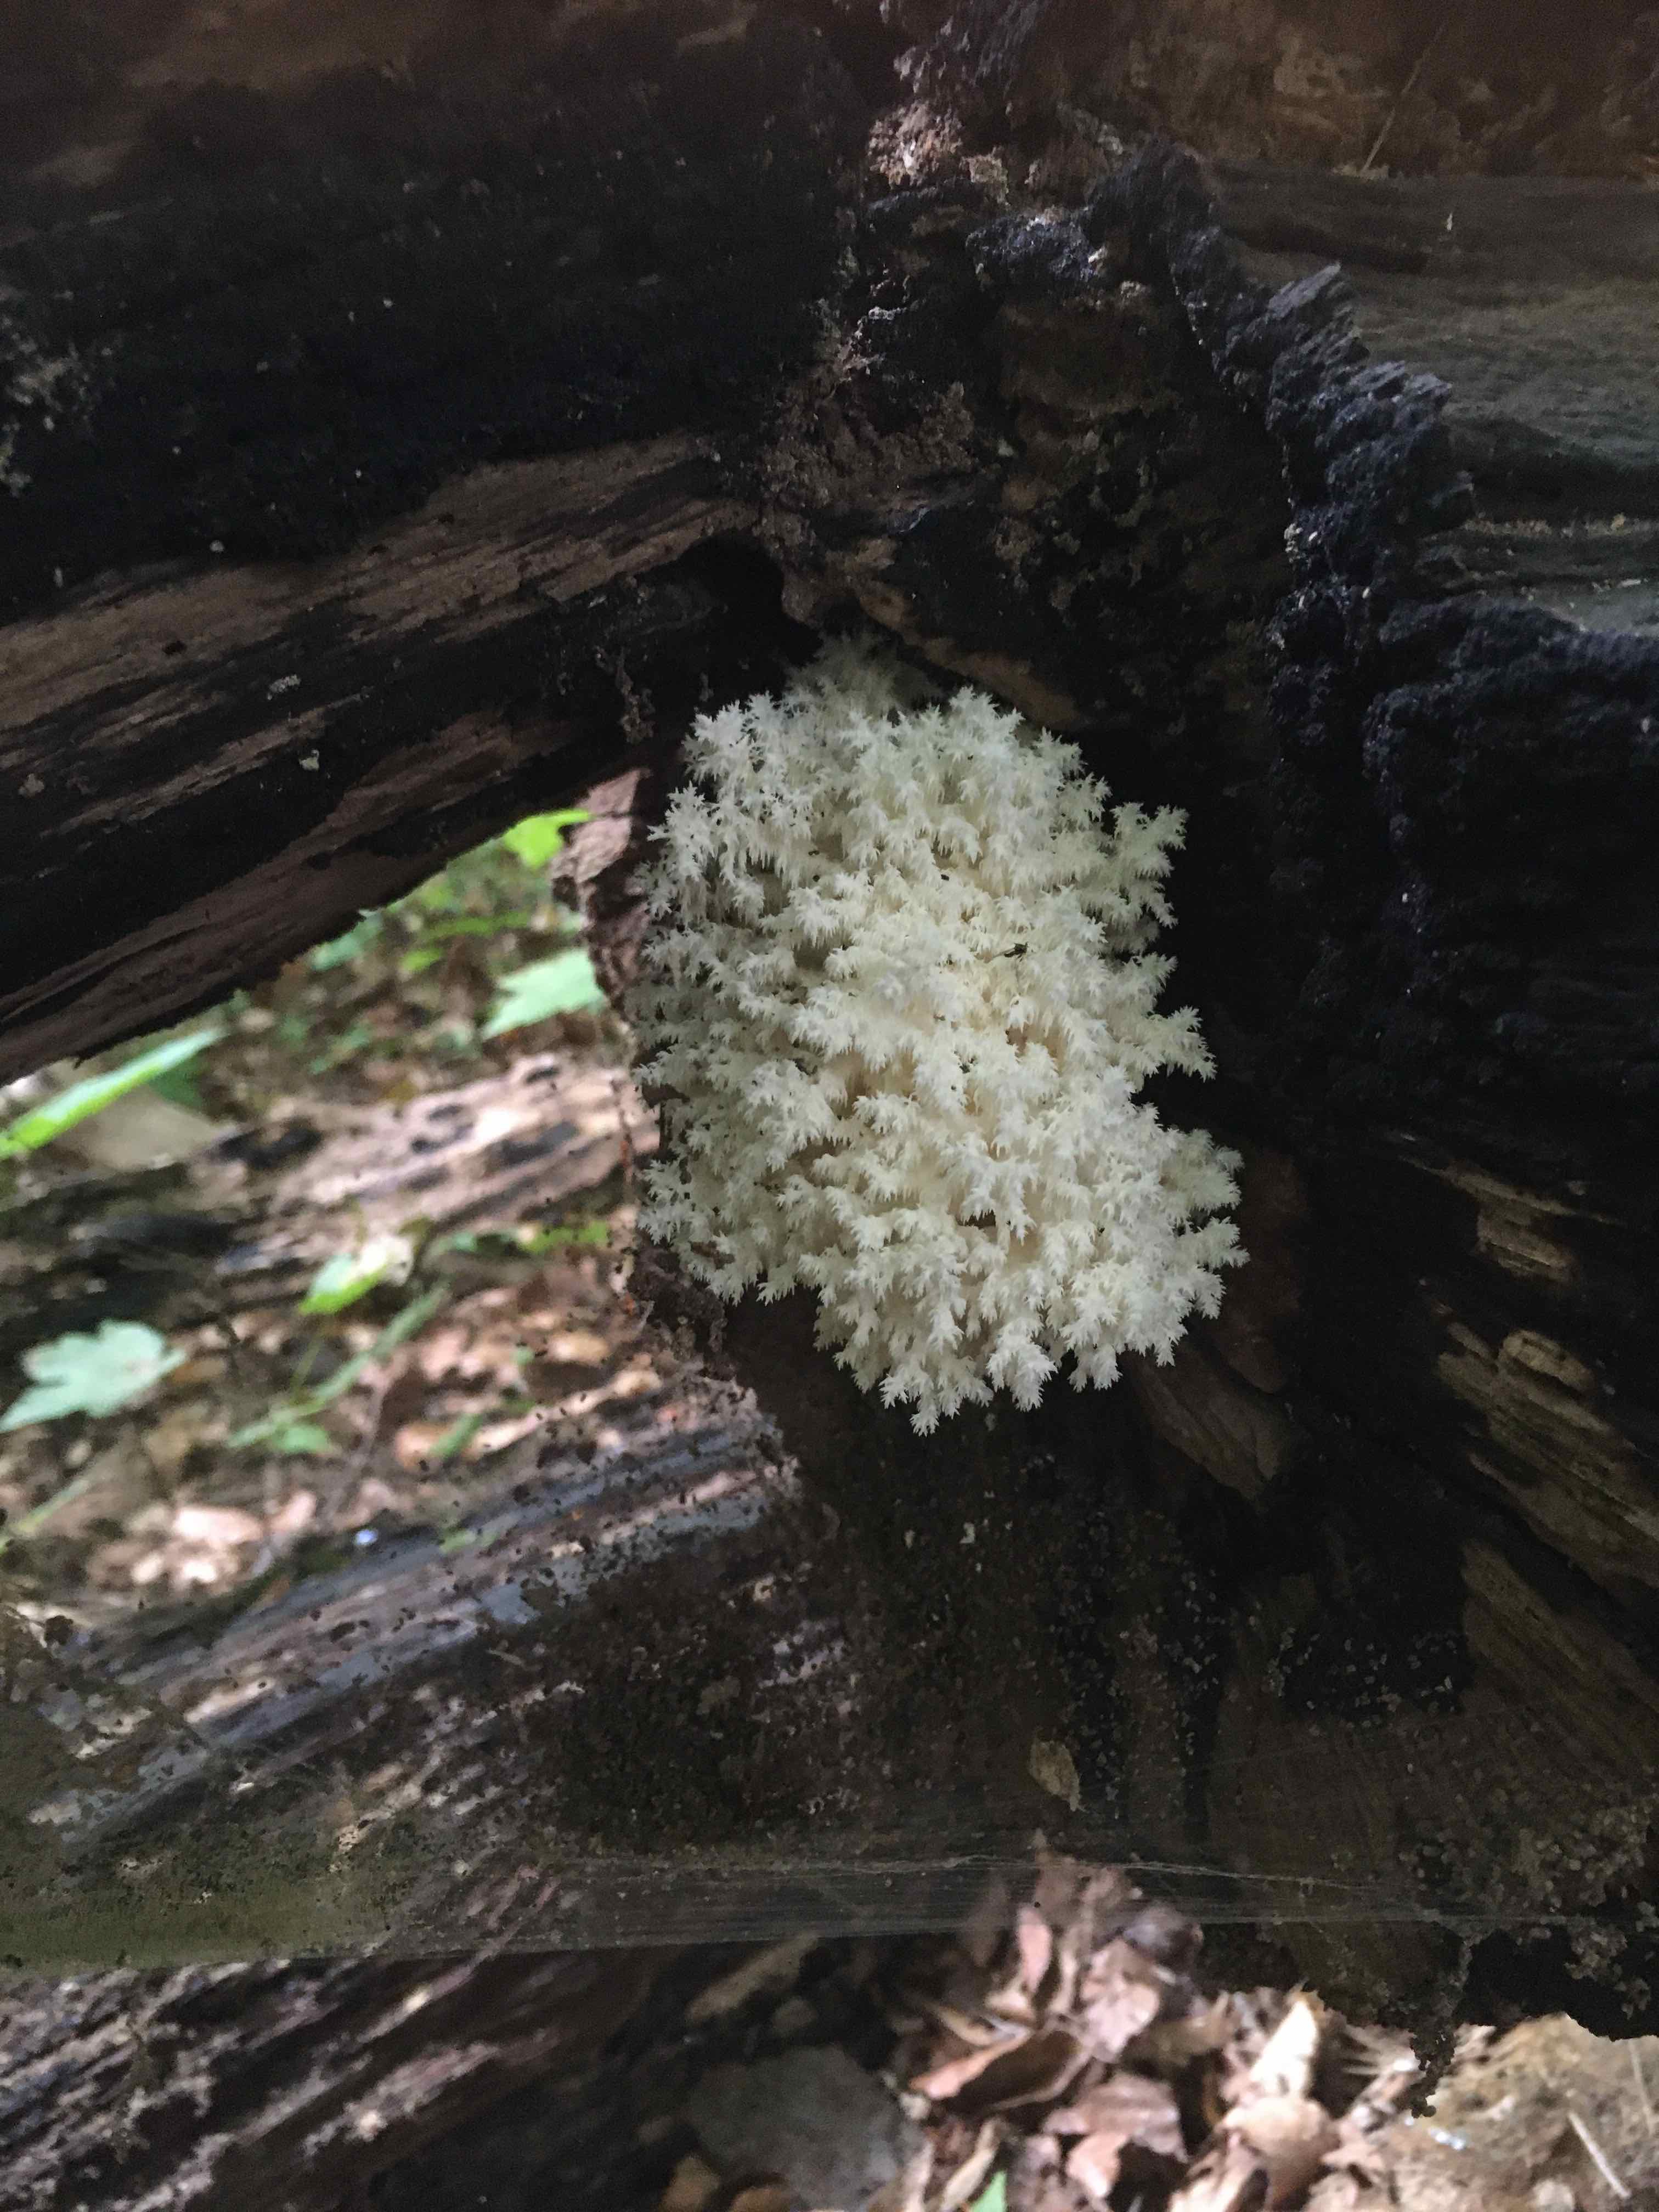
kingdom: Fungi
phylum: Basidiomycota
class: Agaricomycetes
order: Russulales
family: Hericiaceae
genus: Hericium
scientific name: Hericium coralloides
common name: koralpigsvamp
